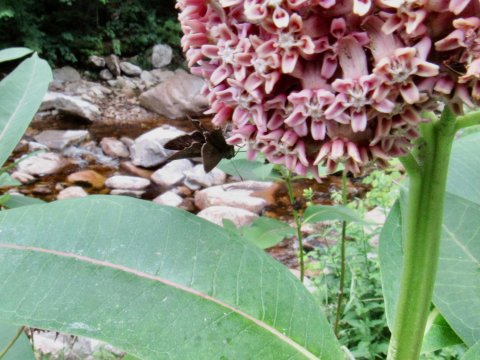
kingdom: Animalia
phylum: Arthropoda
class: Insecta
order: Lepidoptera
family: Hesperiidae
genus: Euphyes
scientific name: Euphyes vestris
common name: Dun Skipper
